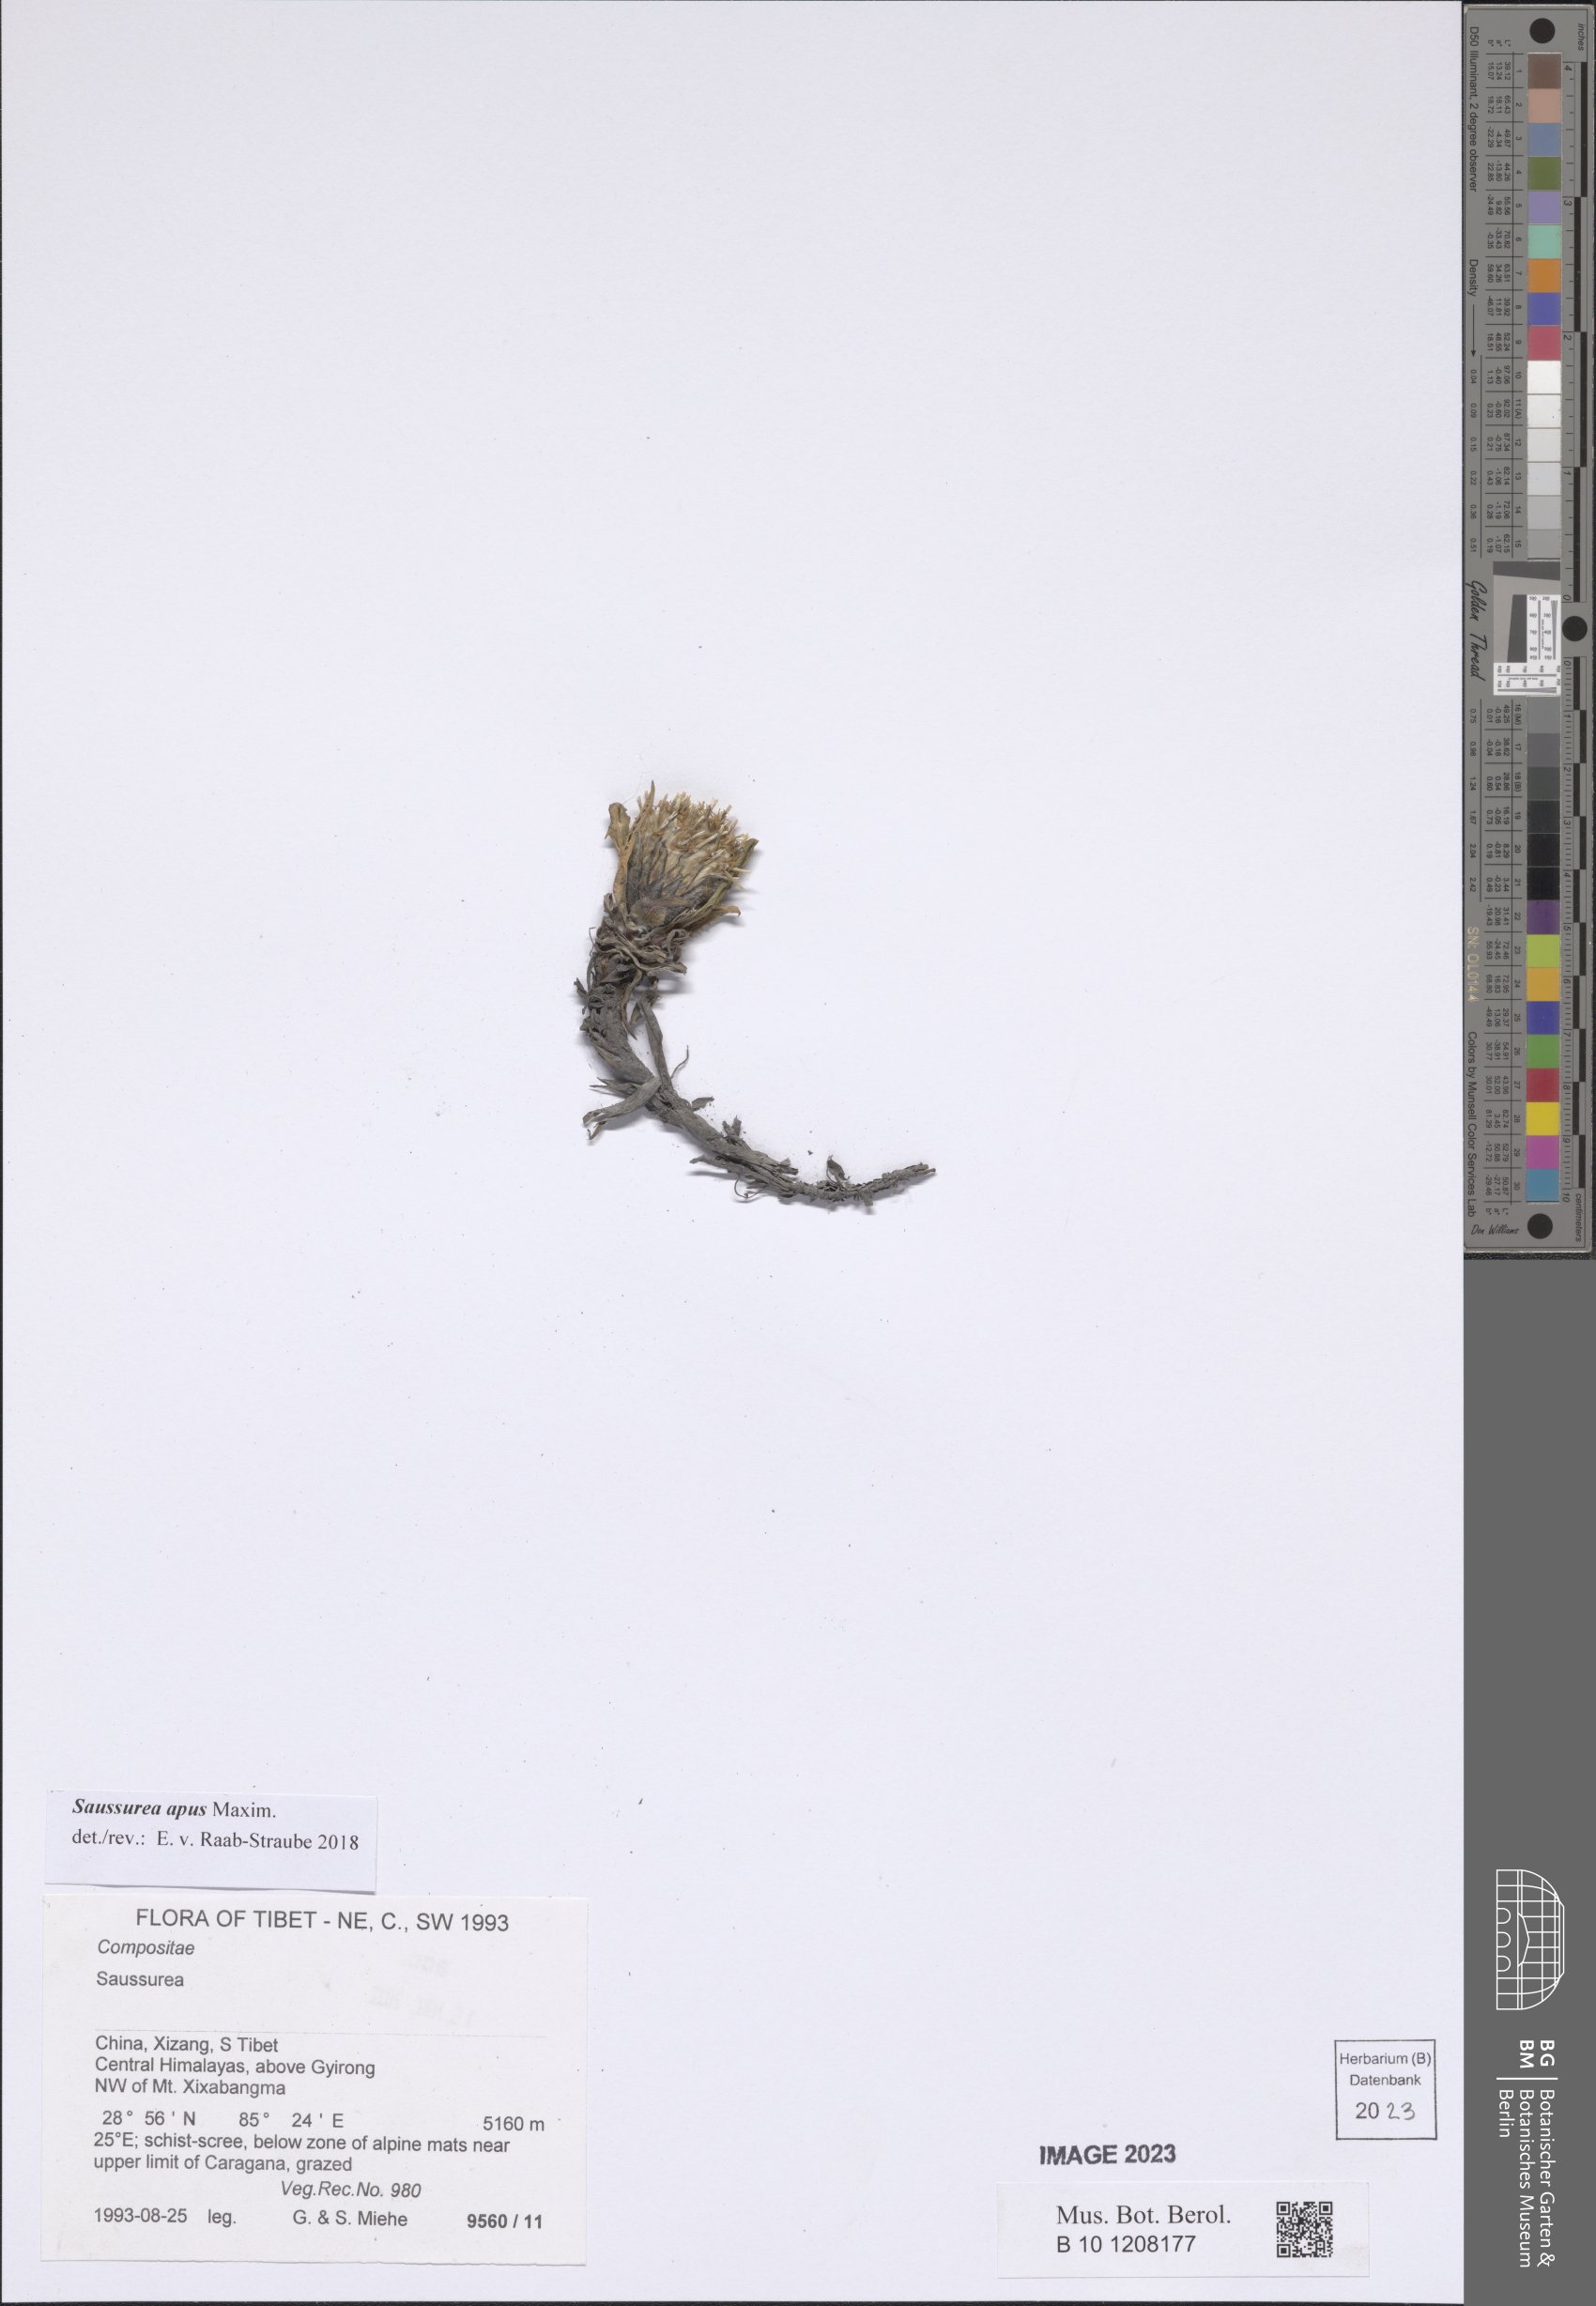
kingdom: Plantae
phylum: Tracheophyta
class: Magnoliopsida
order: Asterales
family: Asteraceae
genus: Saussurea
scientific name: Saussurea apus
